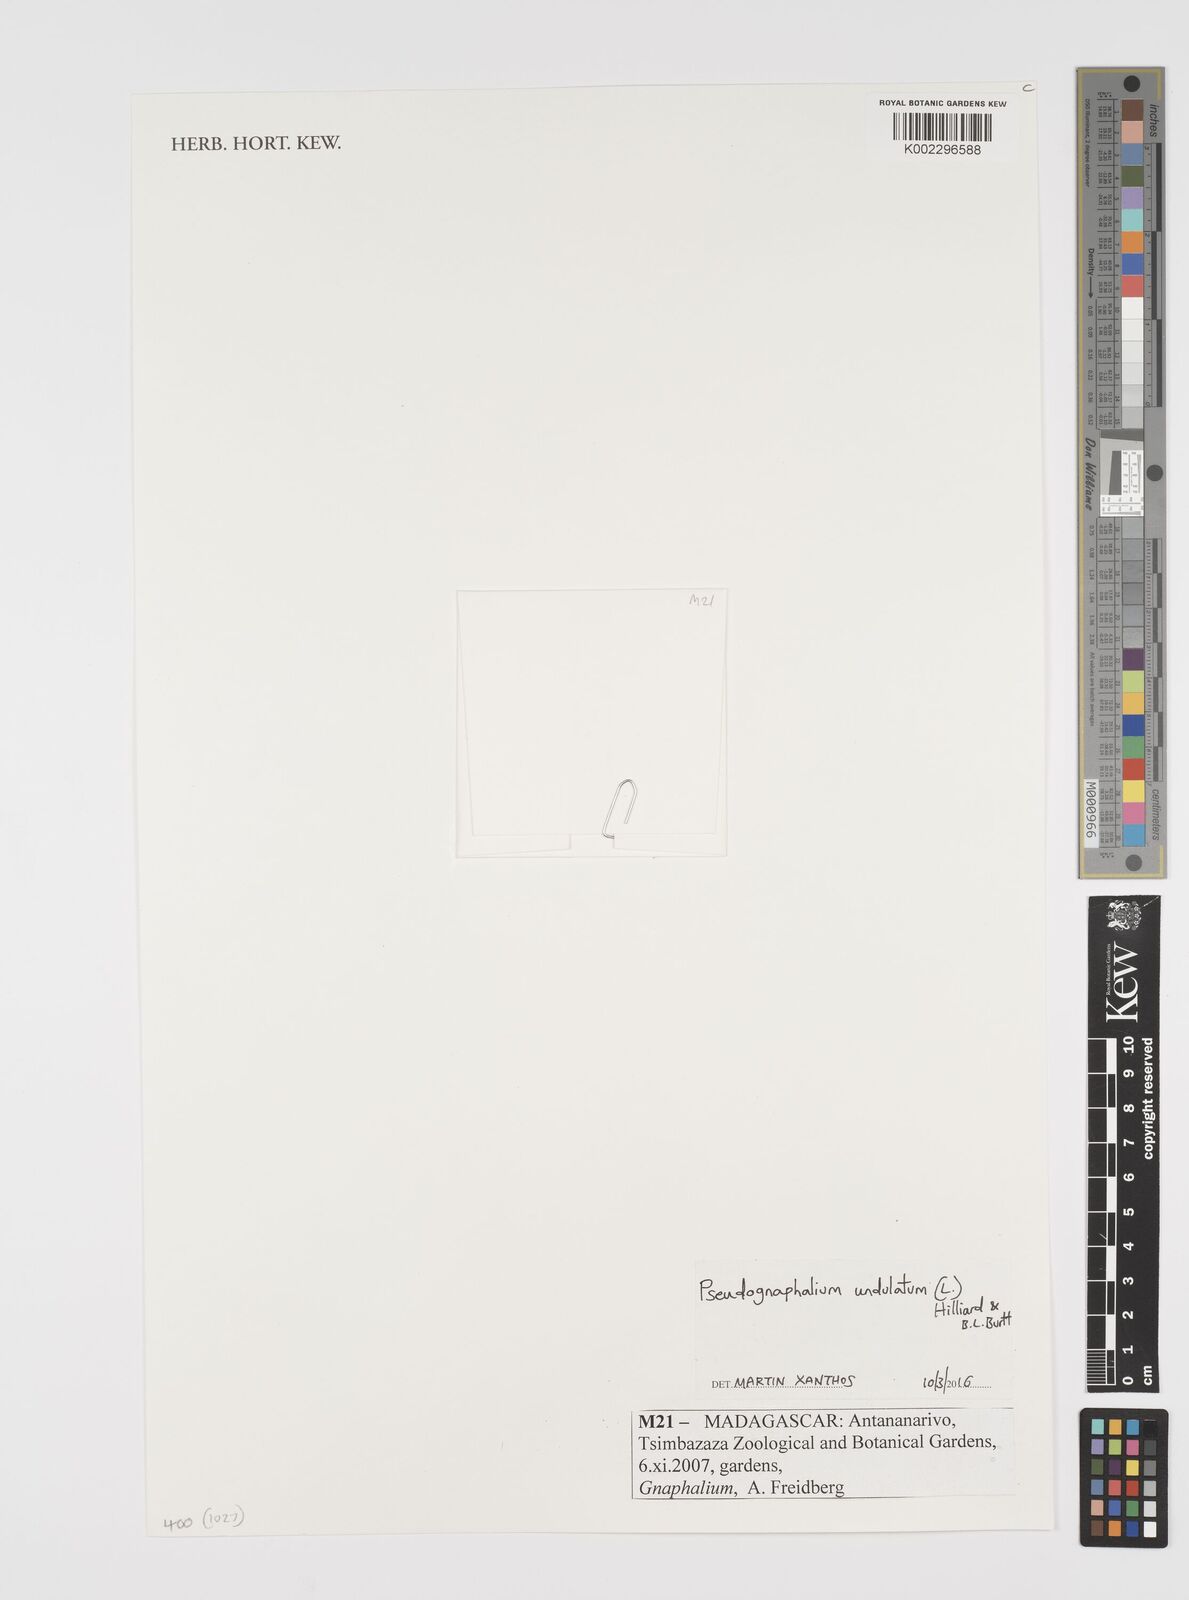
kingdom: Plantae
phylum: Tracheophyta
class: Magnoliopsida
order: Asterales
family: Asteraceae
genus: Pseudognaphalium
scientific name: Pseudognaphalium oligandrum
